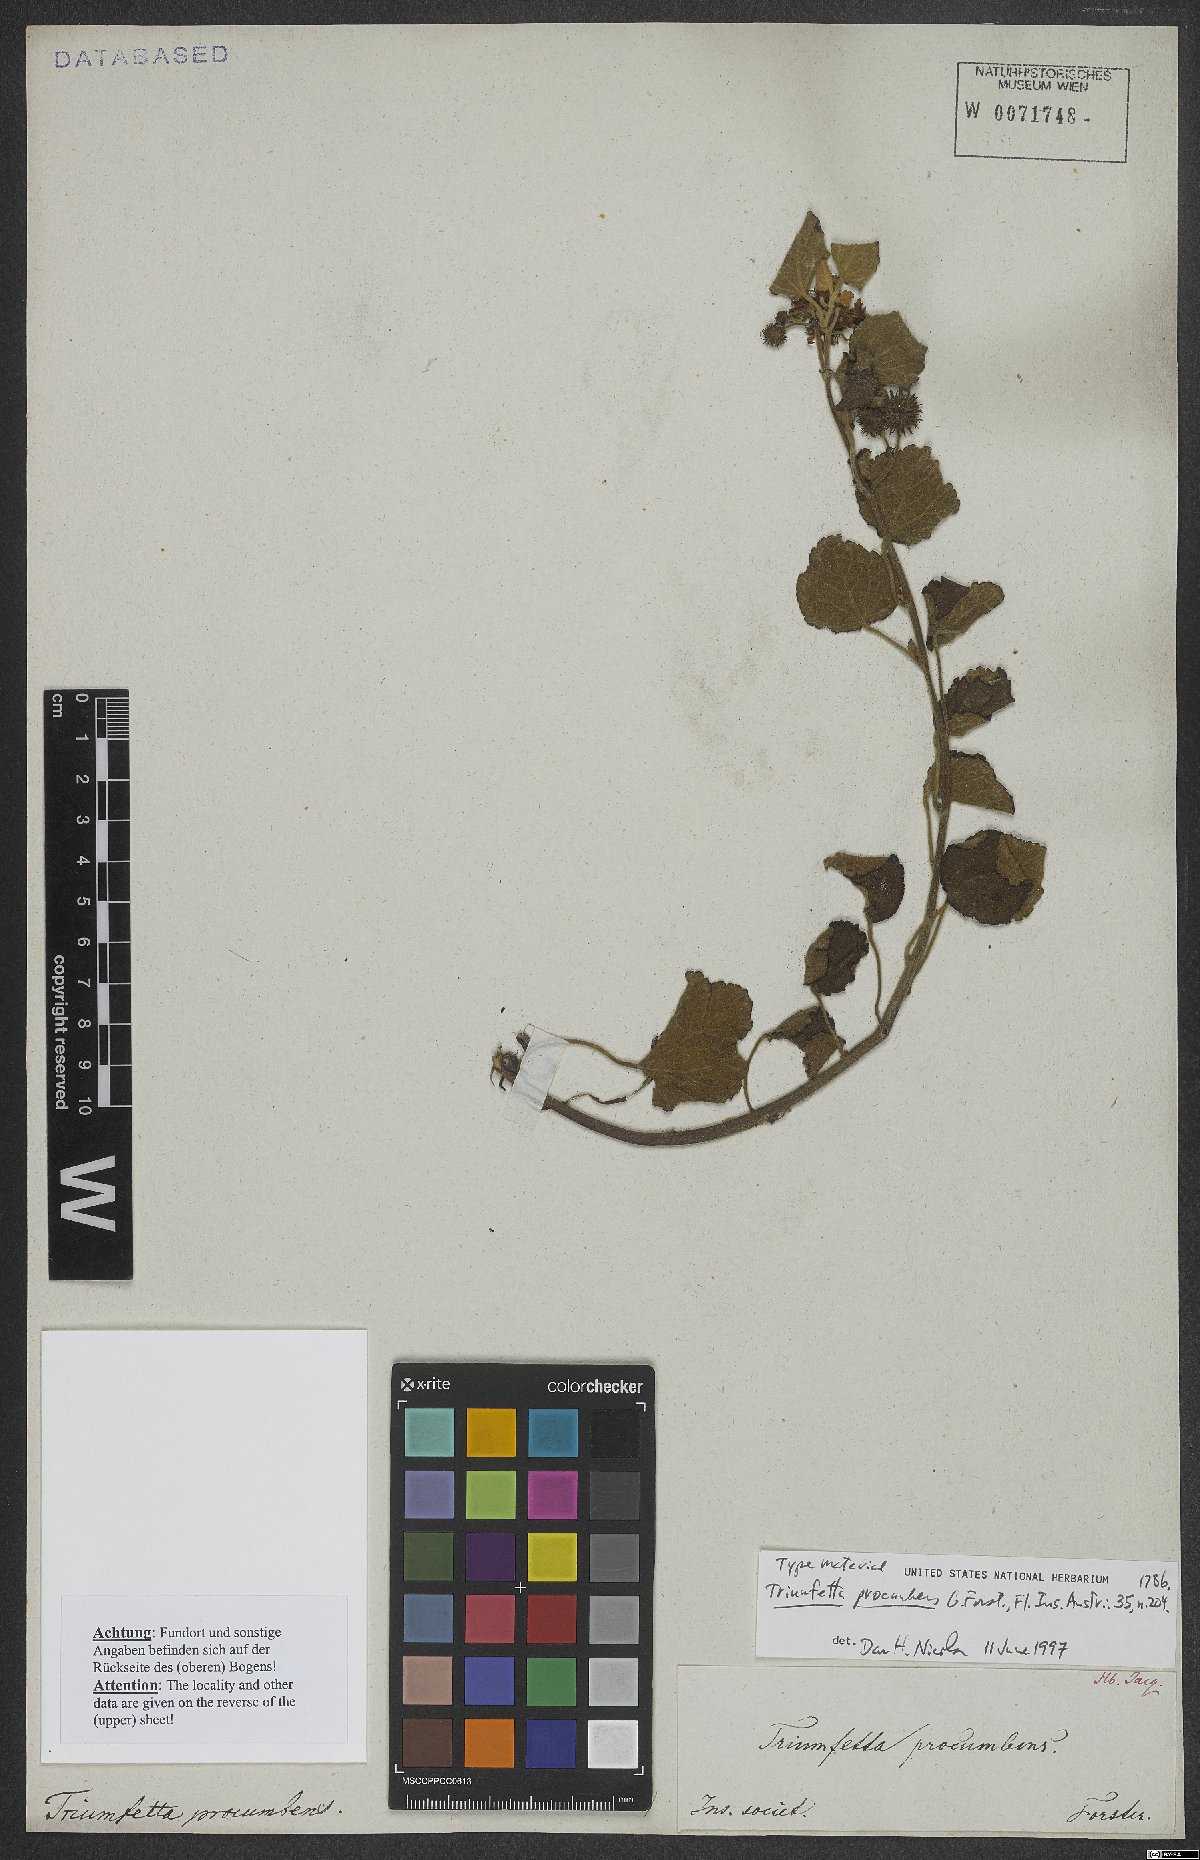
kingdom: Plantae
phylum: Tracheophyta
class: Magnoliopsida
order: Malvales
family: Malvaceae
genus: Triumfetta
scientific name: Triumfetta procumbens
